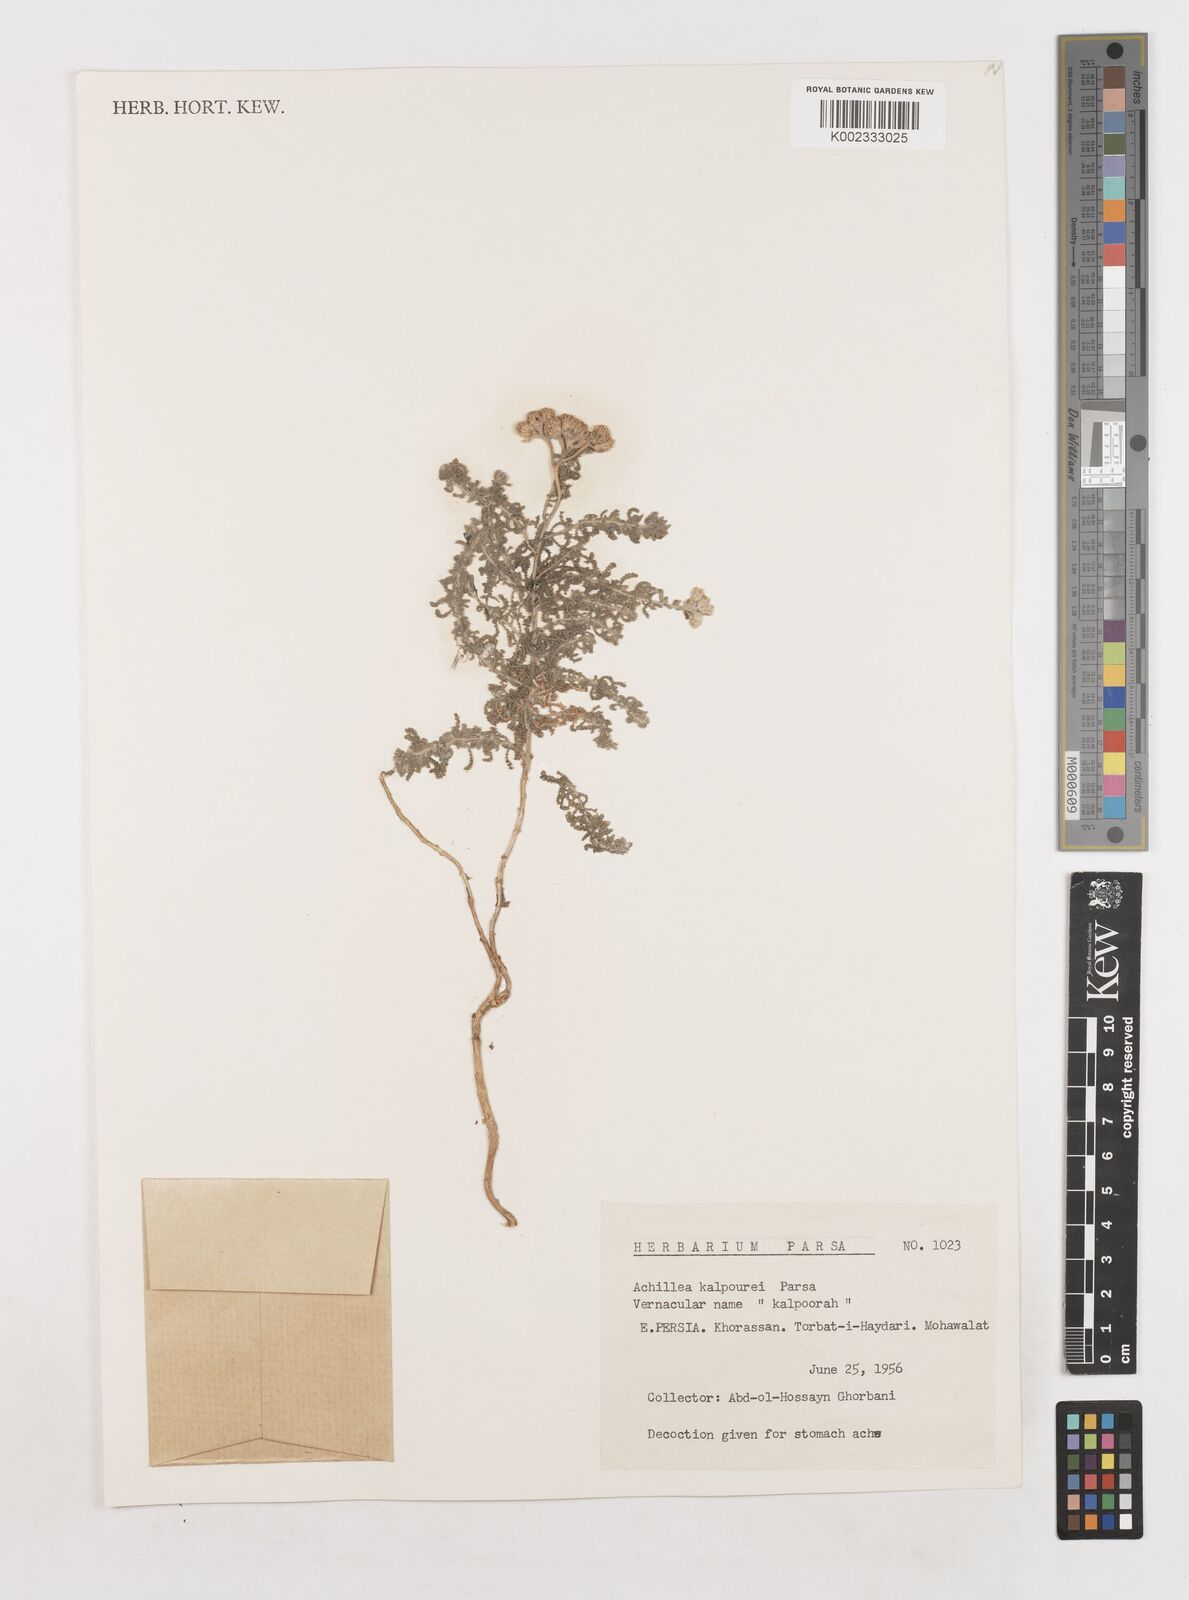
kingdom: Plantae
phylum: Tracheophyta
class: Magnoliopsida
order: Asterales
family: Asteraceae
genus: Achillea
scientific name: Achillea
